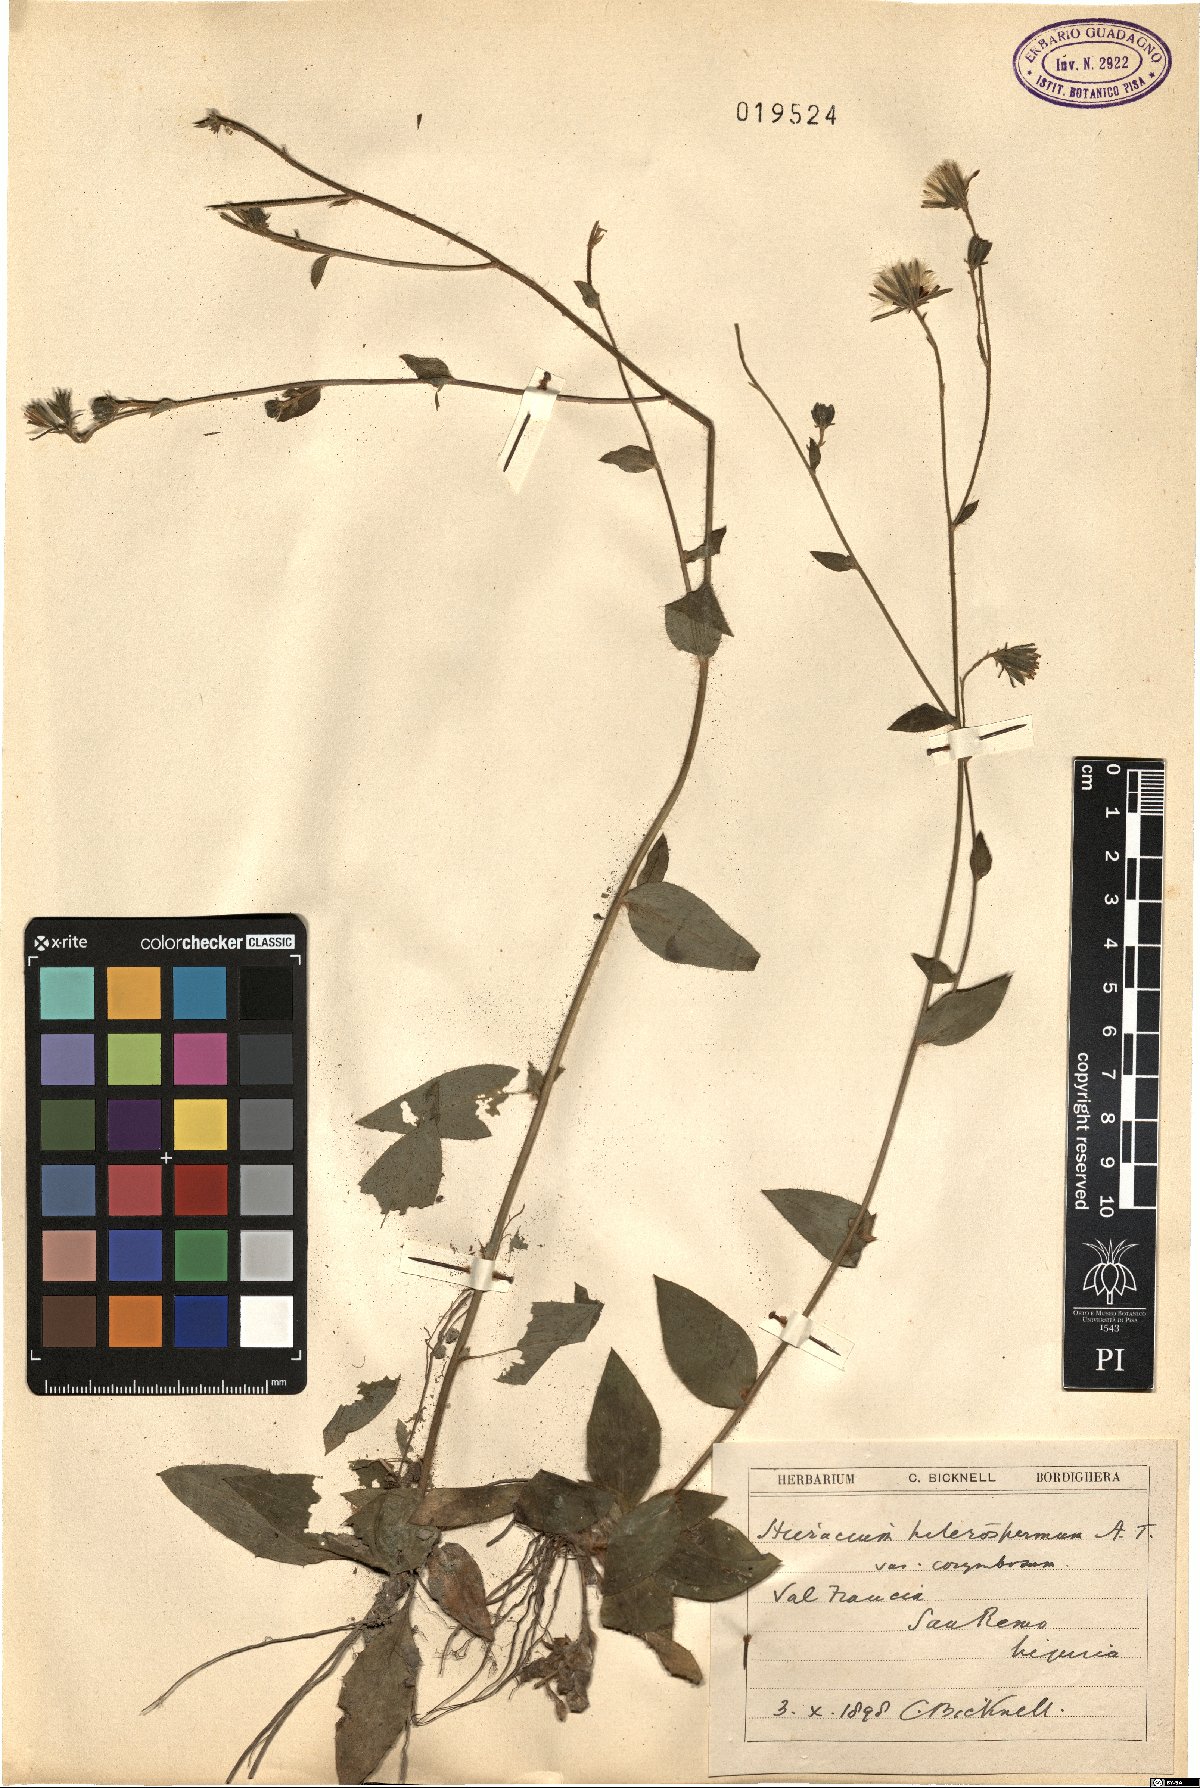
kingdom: Plantae
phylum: Tracheophyta
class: Magnoliopsida
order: Asterales
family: Asteraceae
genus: Hieracium
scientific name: Hieracium racemosum
